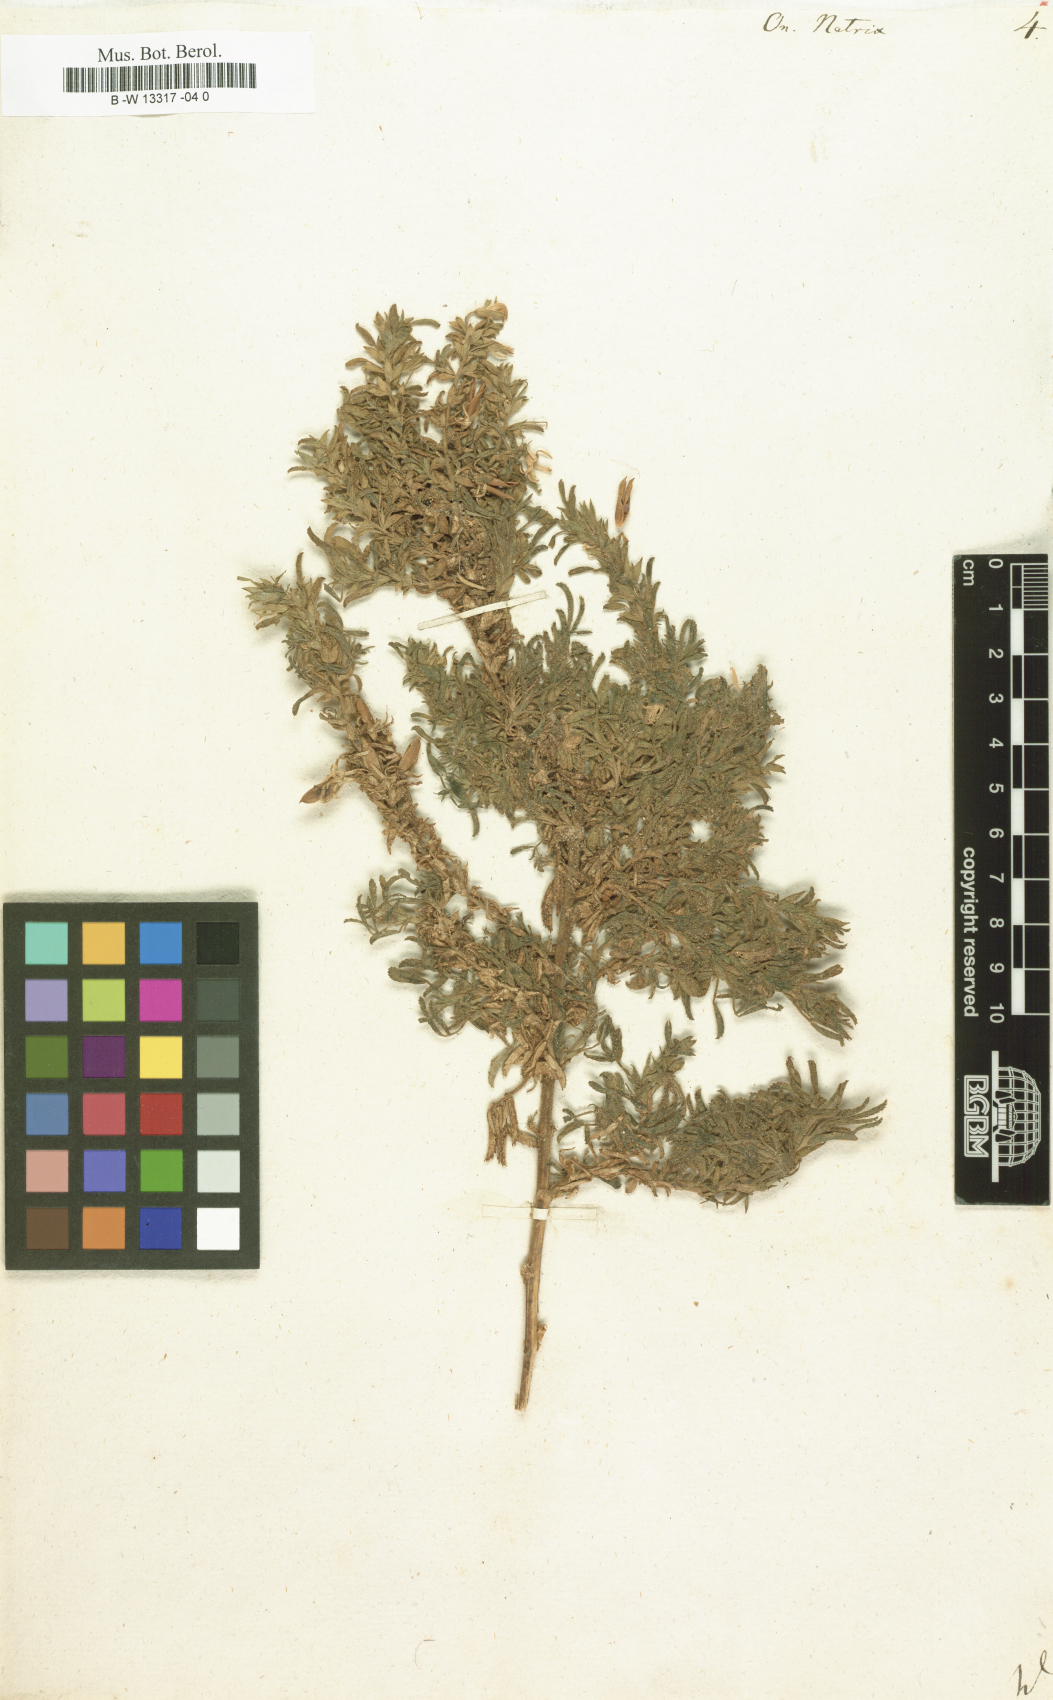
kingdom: Plantae
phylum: Tracheophyta
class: Magnoliopsida
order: Fabales
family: Fabaceae
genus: Ononis
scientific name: Ononis natrix
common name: Yellow restharrow
